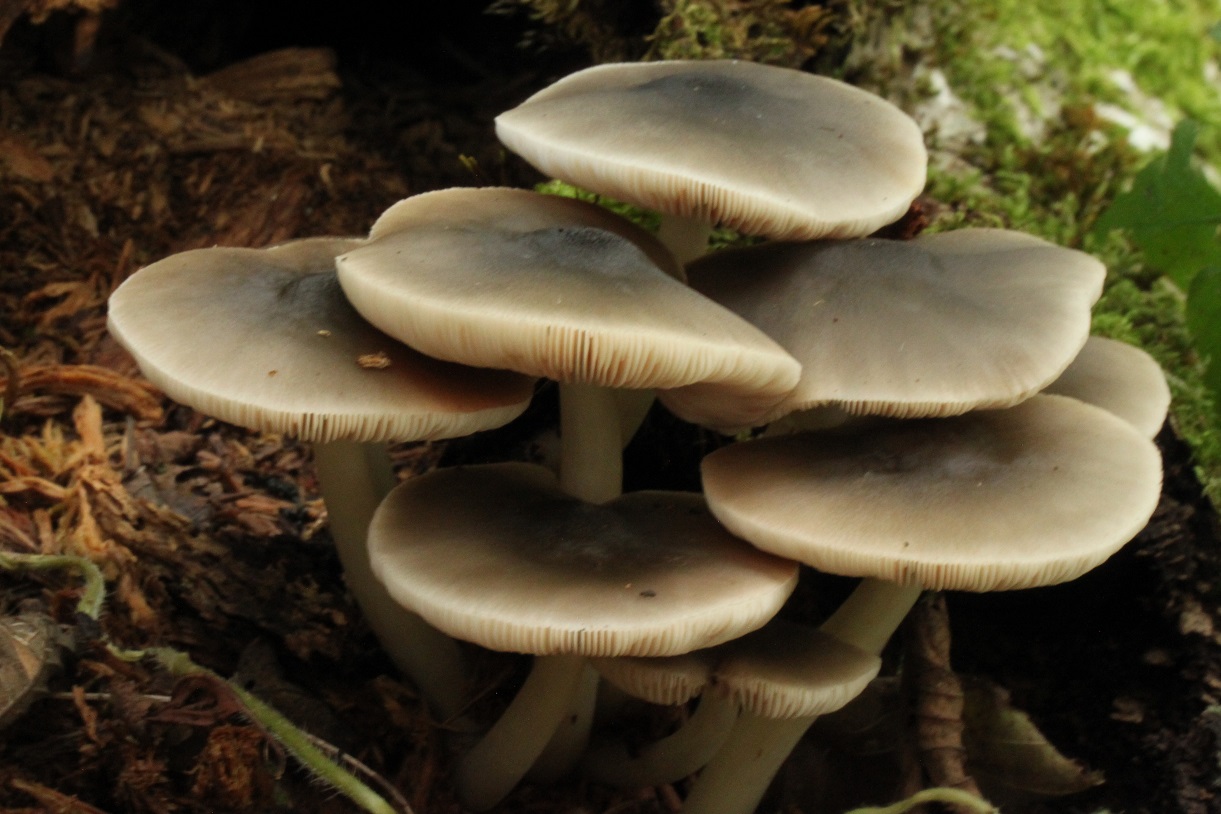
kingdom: Fungi
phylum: Basidiomycota
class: Agaricomycetes
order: Agaricales
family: Pluteaceae
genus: Pluteus
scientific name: Pluteus salicinus
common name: stiv skærmhat
